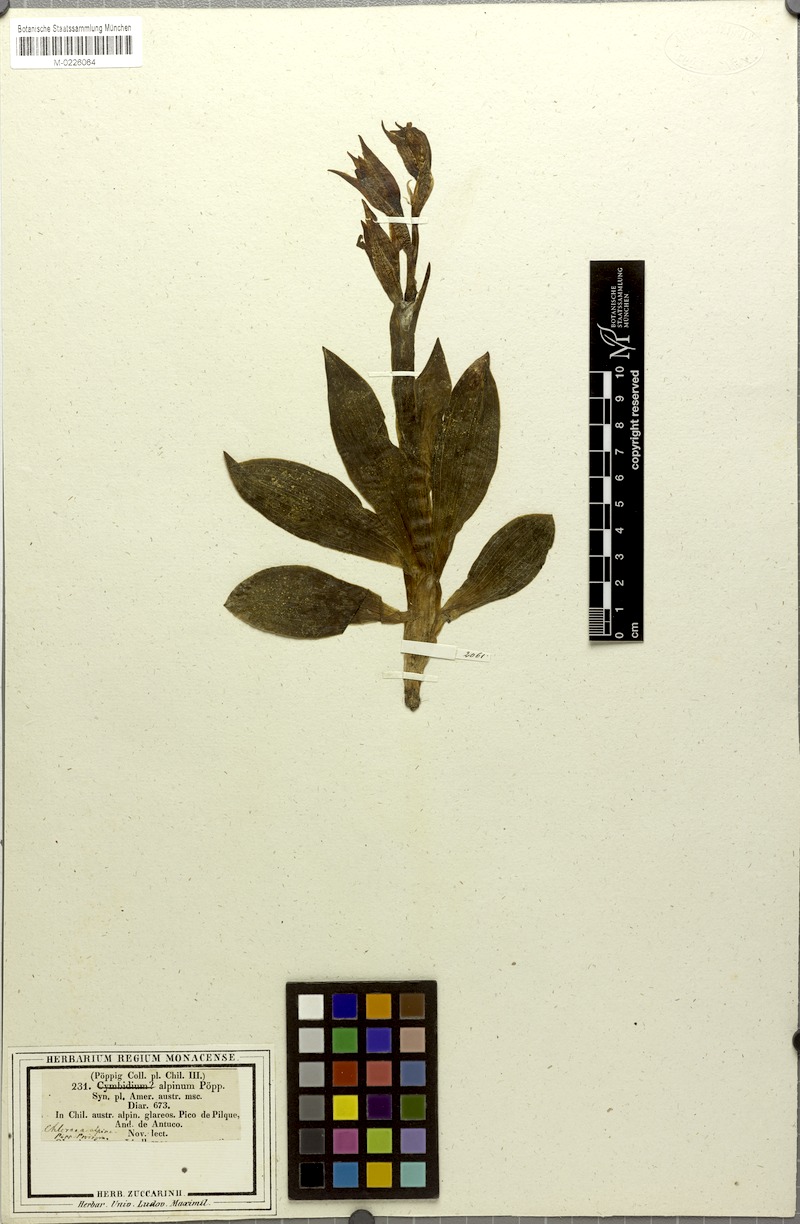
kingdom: Plantae
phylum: Tracheophyta
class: Liliopsida
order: Asparagales
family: Orchidaceae
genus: Chloraea
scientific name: Chloraea alpina
